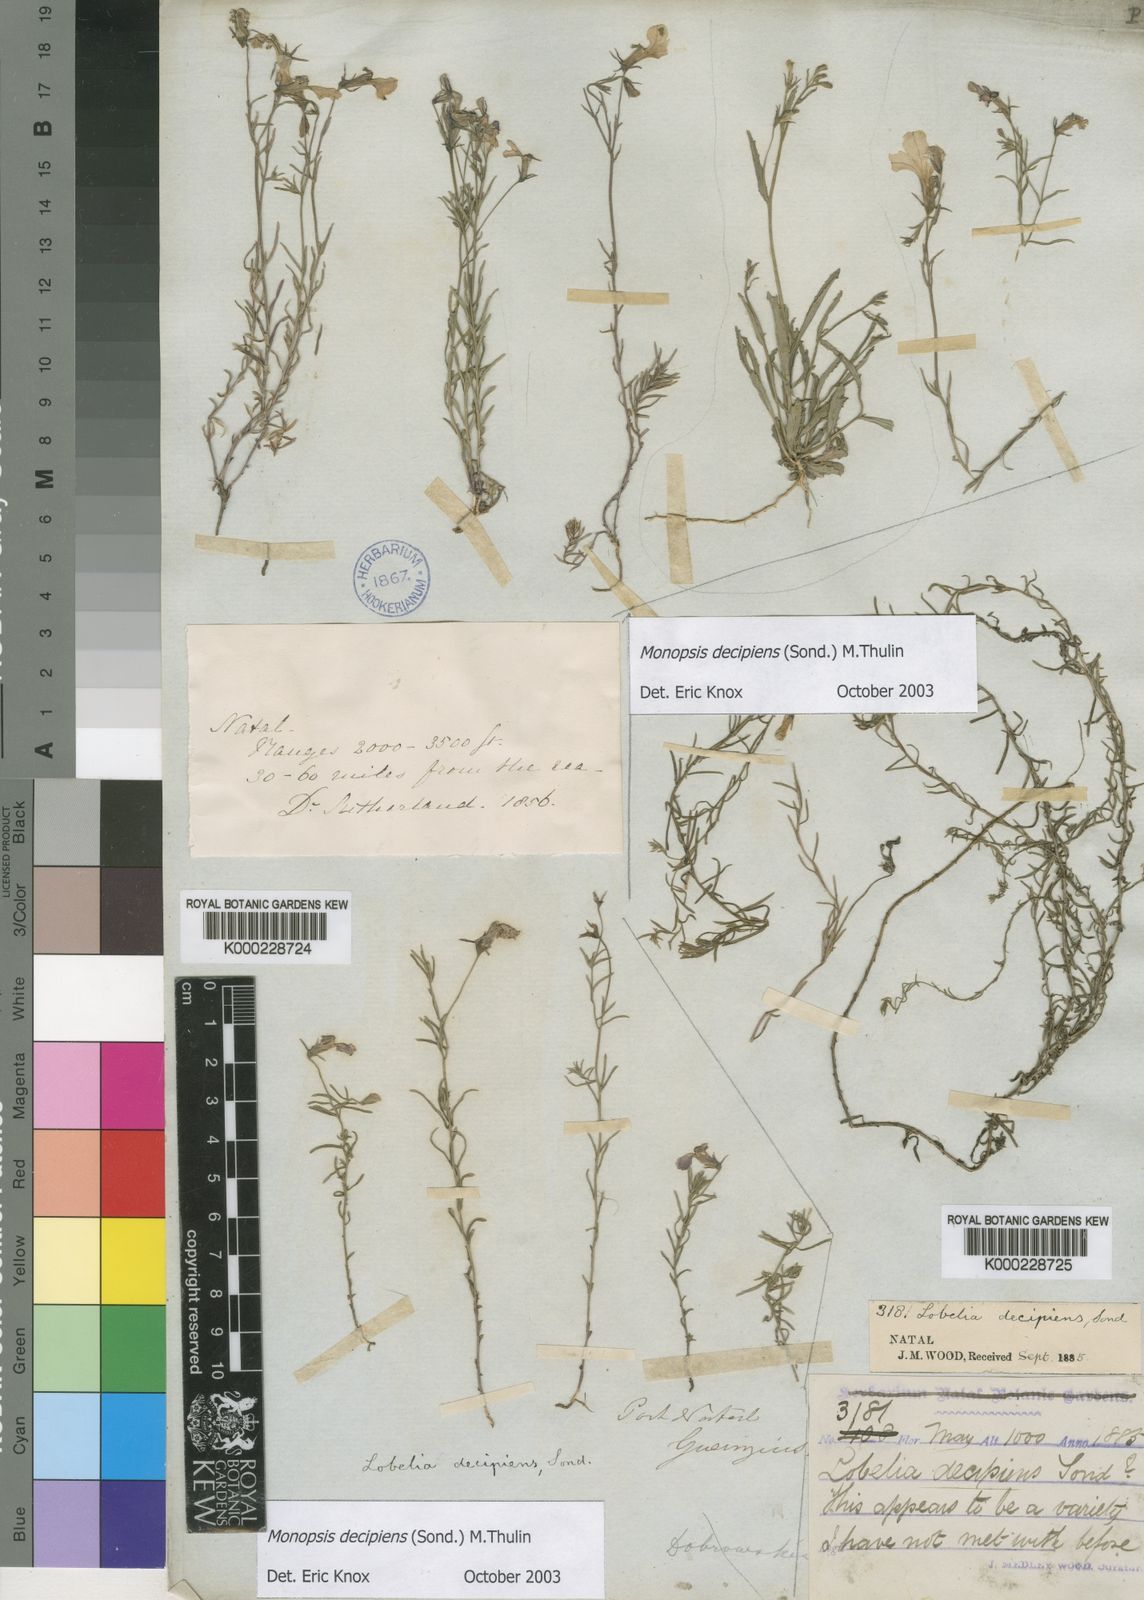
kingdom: Plantae
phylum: Tracheophyta
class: Magnoliopsida
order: Asterales
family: Campanulaceae
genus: Monopsis
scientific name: Monopsis decipiens
